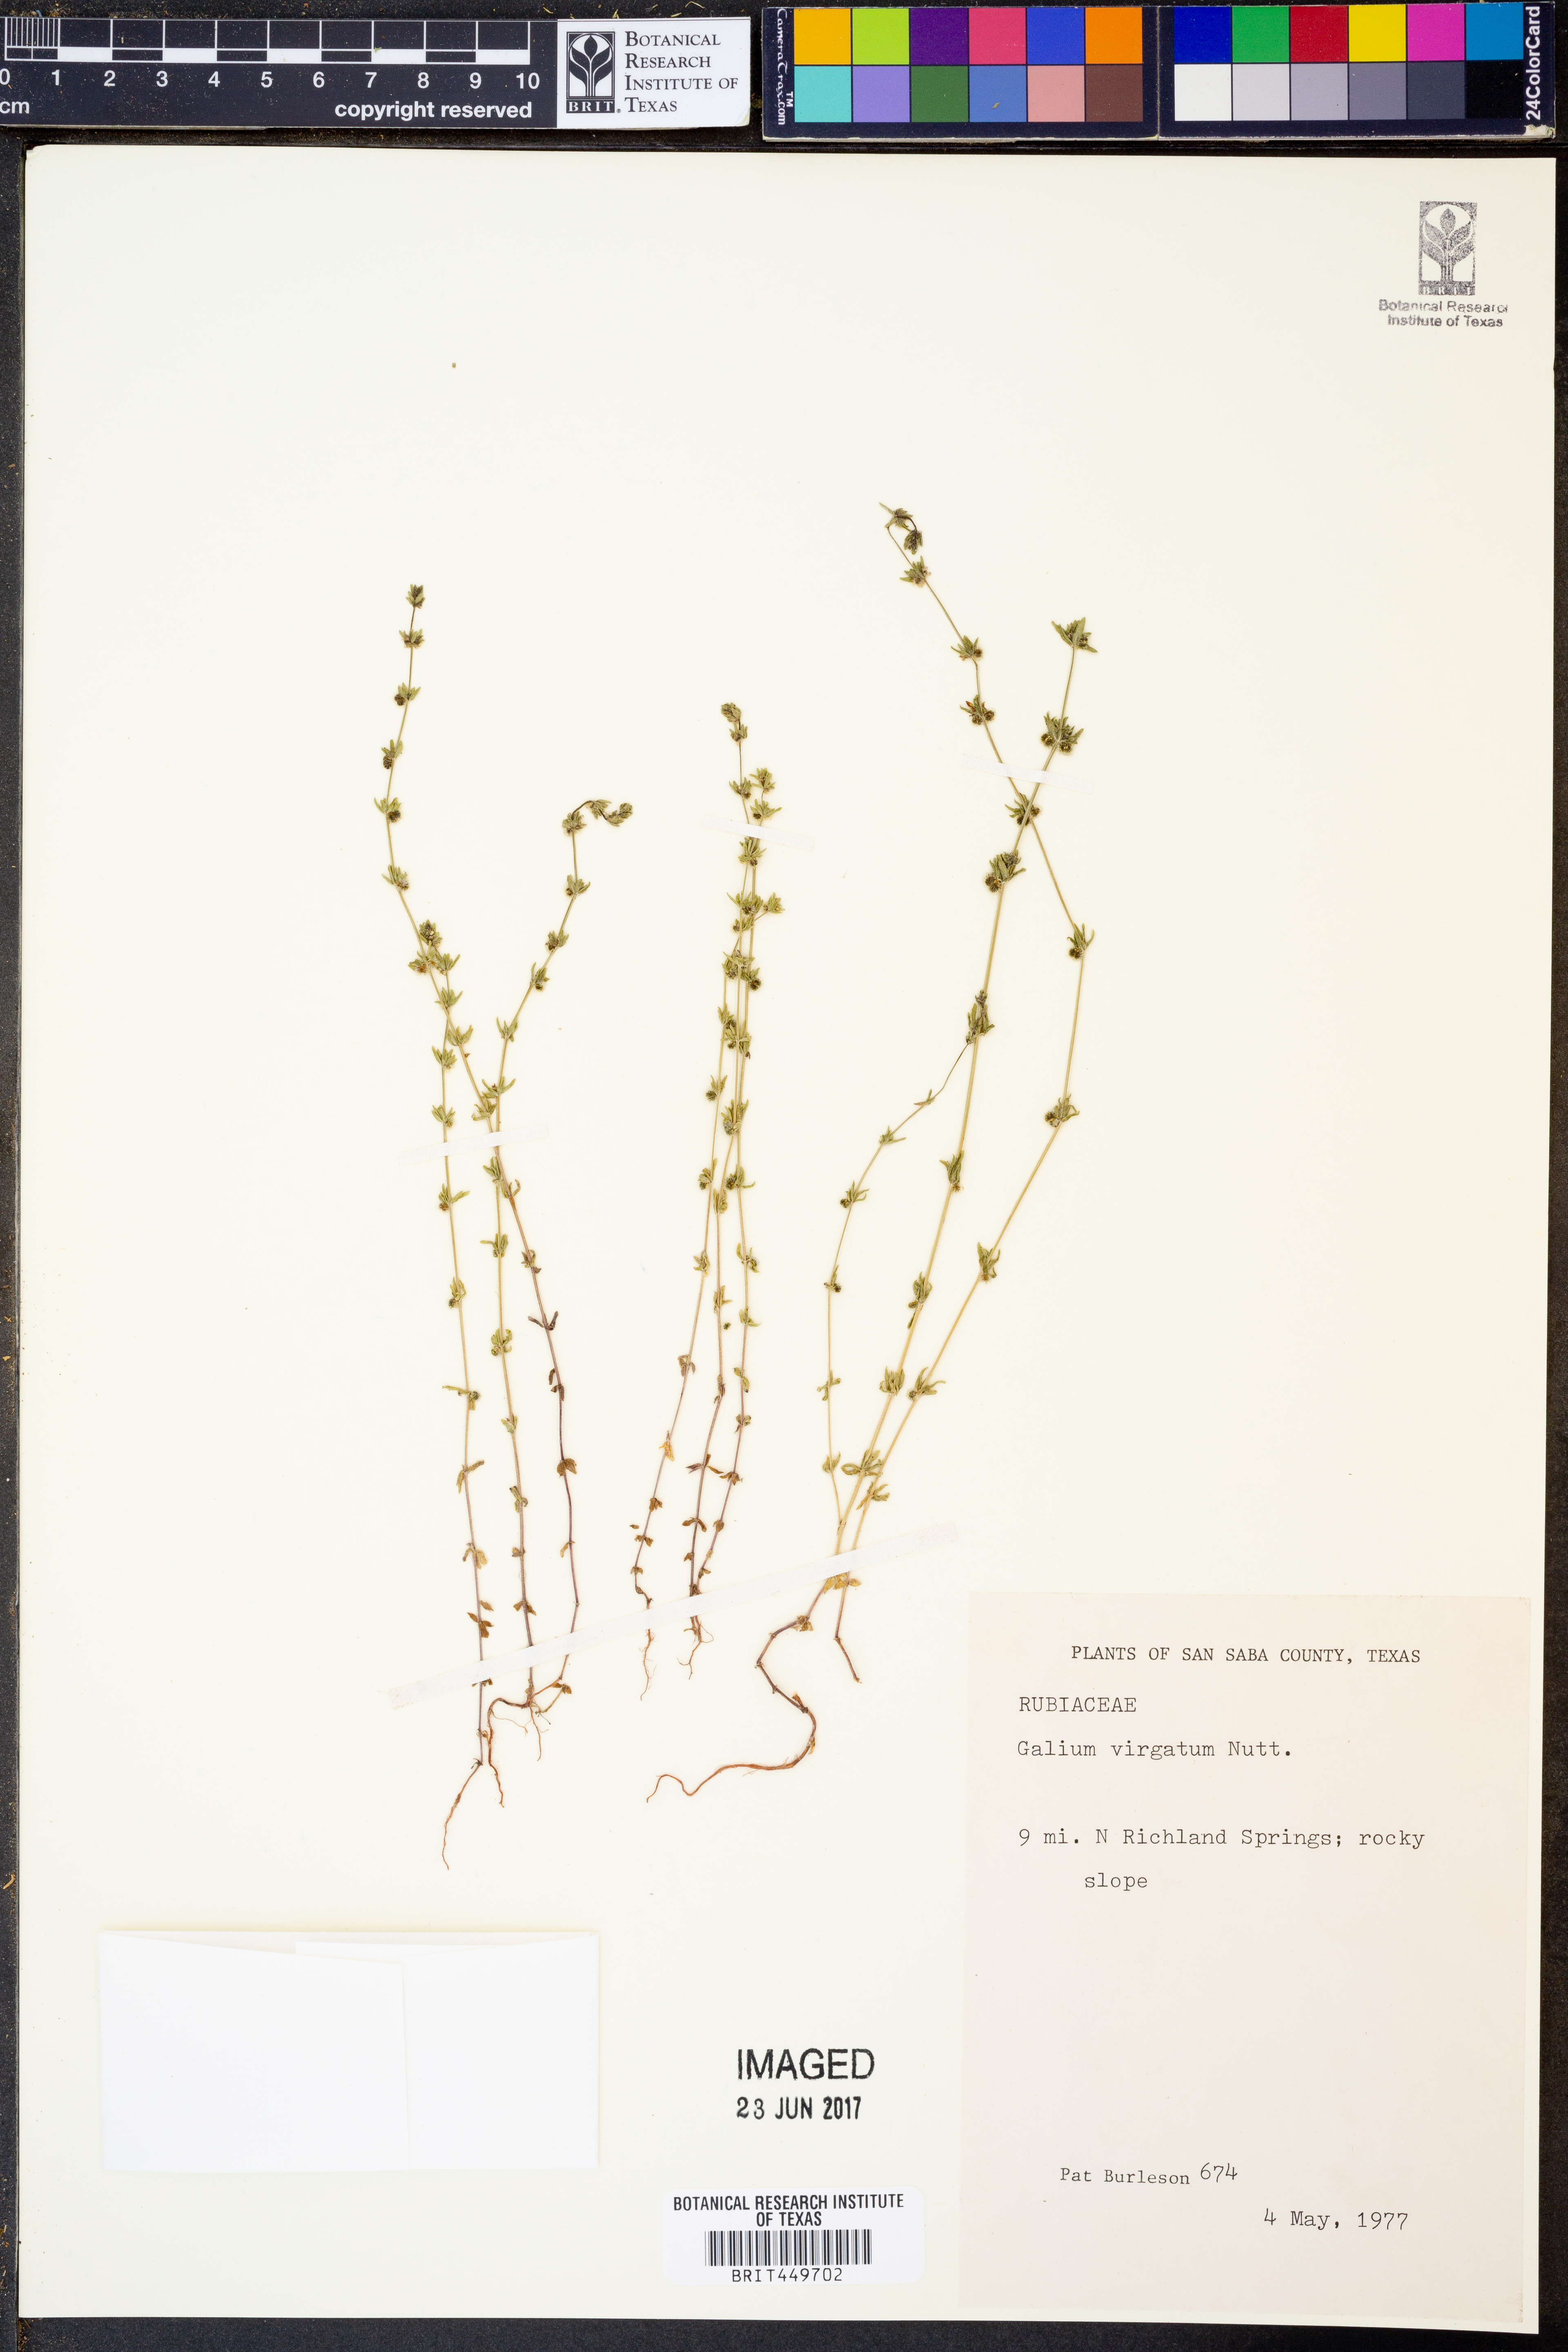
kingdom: Plantae
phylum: Tracheophyta
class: Magnoliopsida
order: Gentianales
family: Rubiaceae
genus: Galium
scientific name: Galium virgatum
